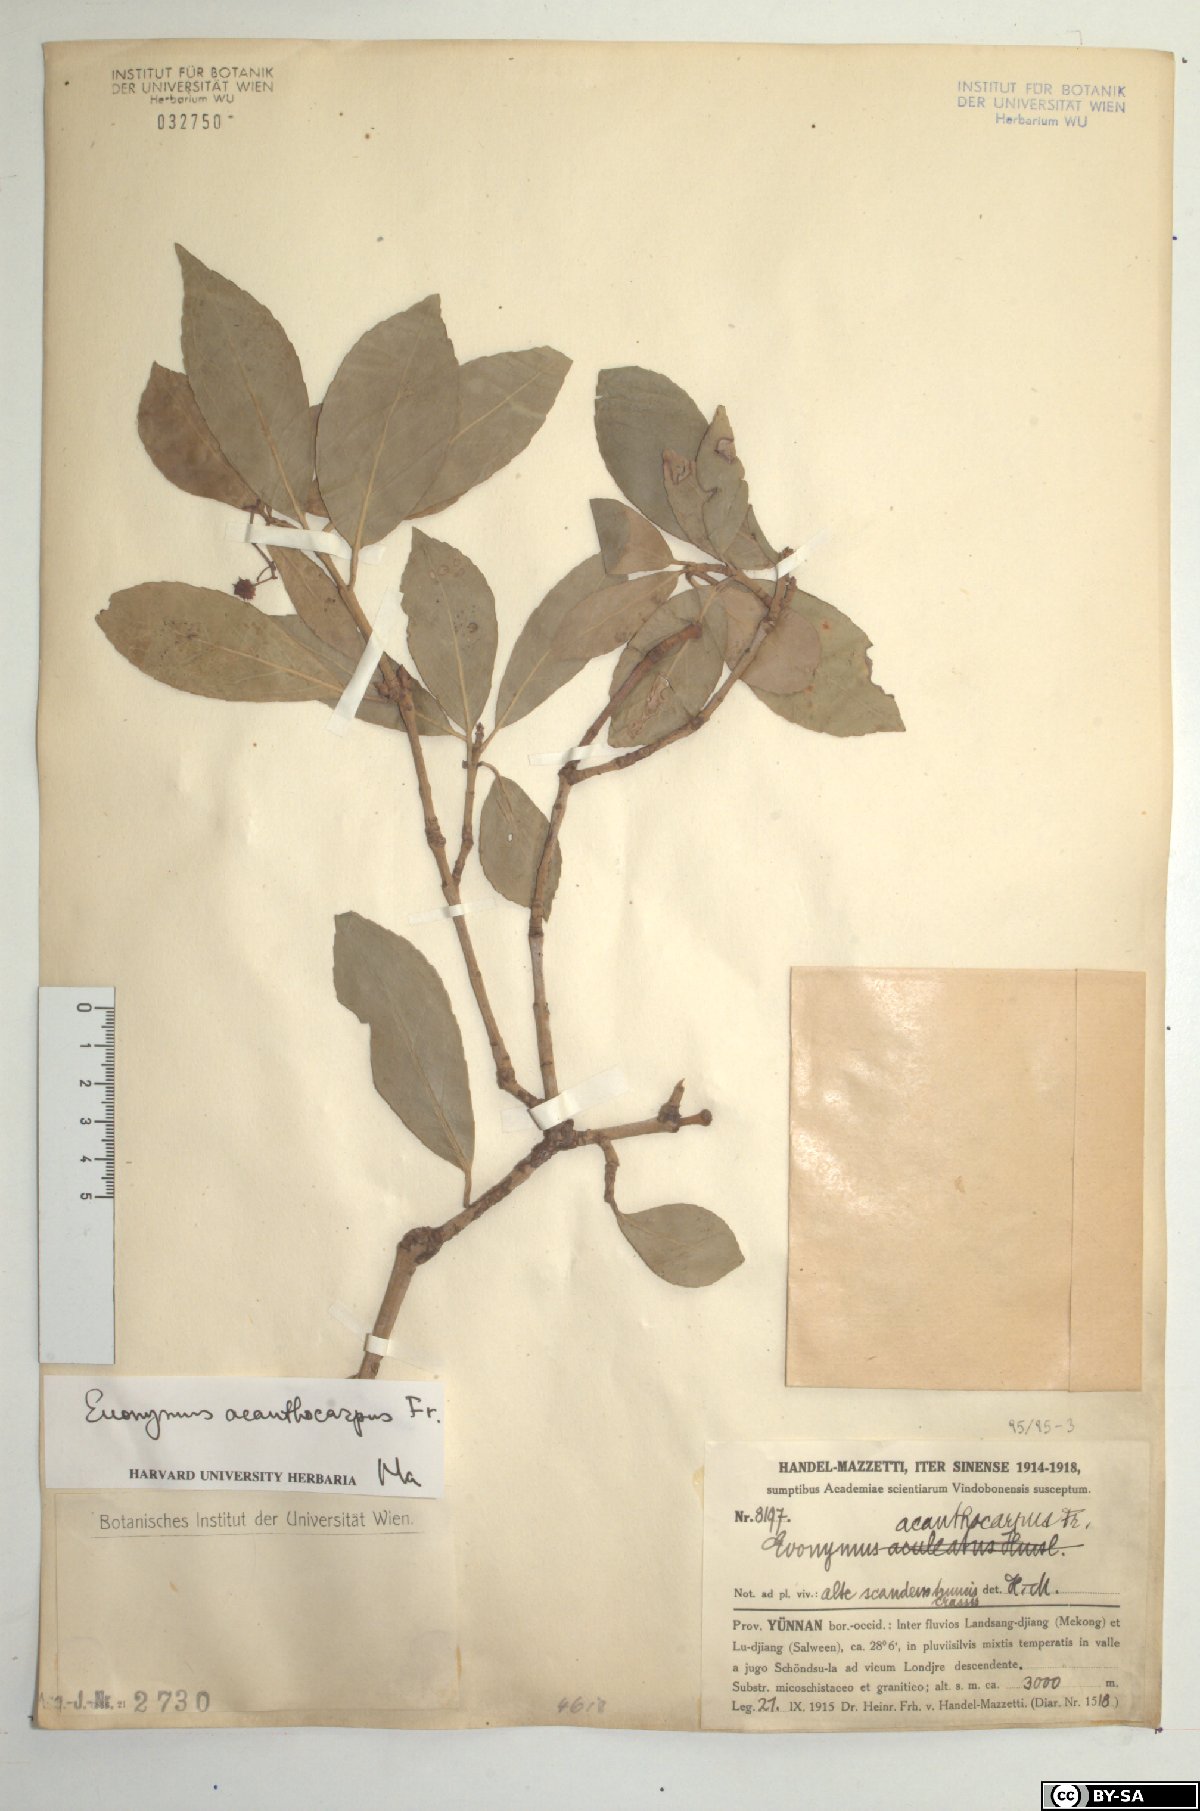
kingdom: Plantae
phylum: Tracheophyta
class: Magnoliopsida
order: Celastrales
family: Celastraceae
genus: Euonymus
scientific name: Euonymus acanthocarpus
